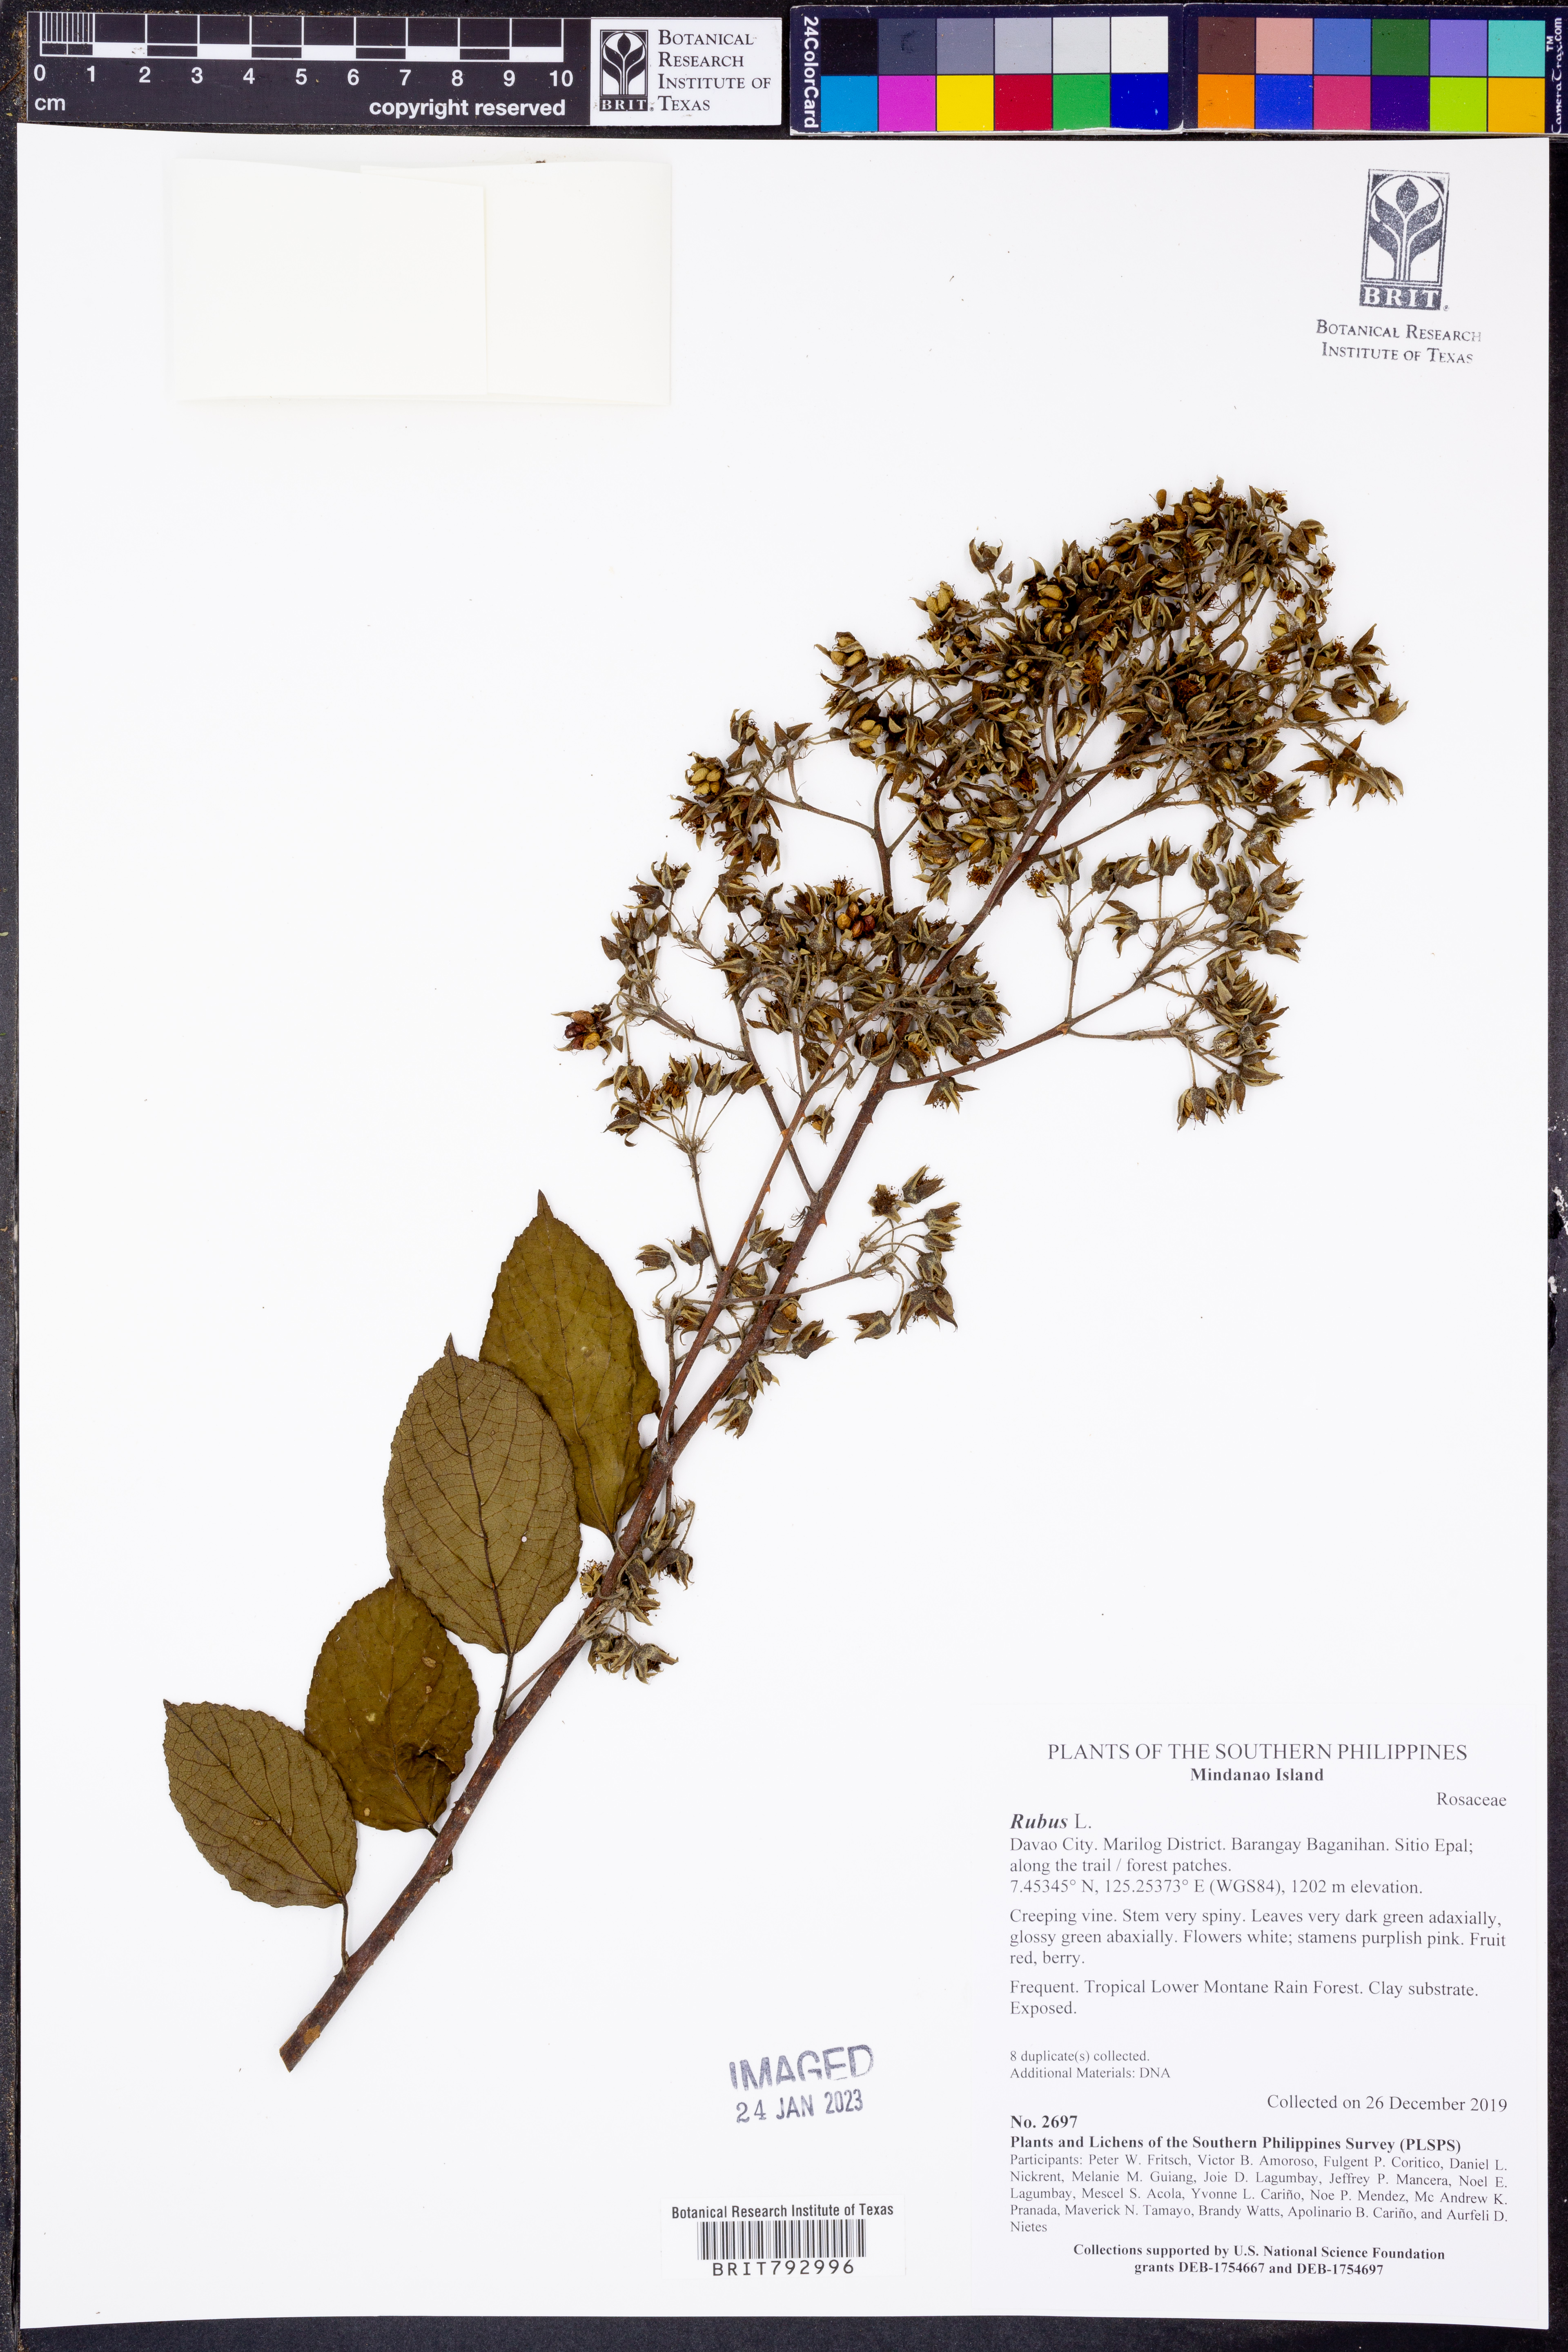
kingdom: Plantae
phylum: Tracheophyta
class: Magnoliopsida
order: Rosales
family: Rosaceae
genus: Rubus
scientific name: Rubus
